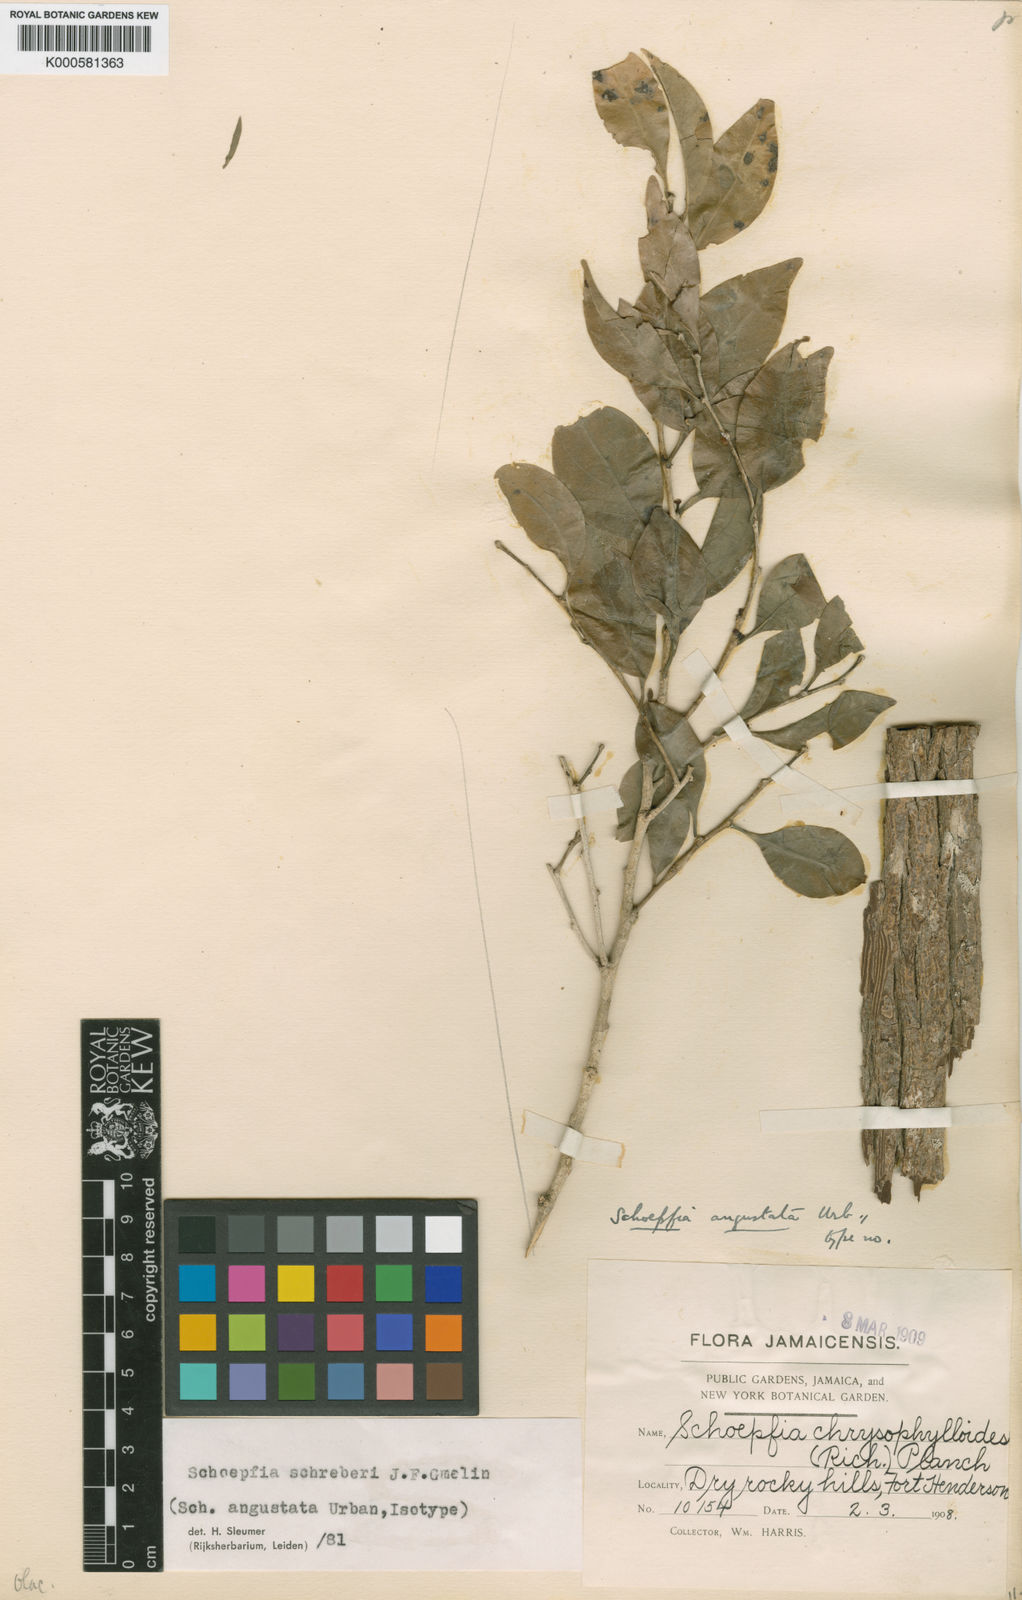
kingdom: Plantae
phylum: Tracheophyta
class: Magnoliopsida
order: Santalales
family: Schoepfiaceae
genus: Schoepfia
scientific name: Schoepfia schreberi
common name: Gulf graytwig
